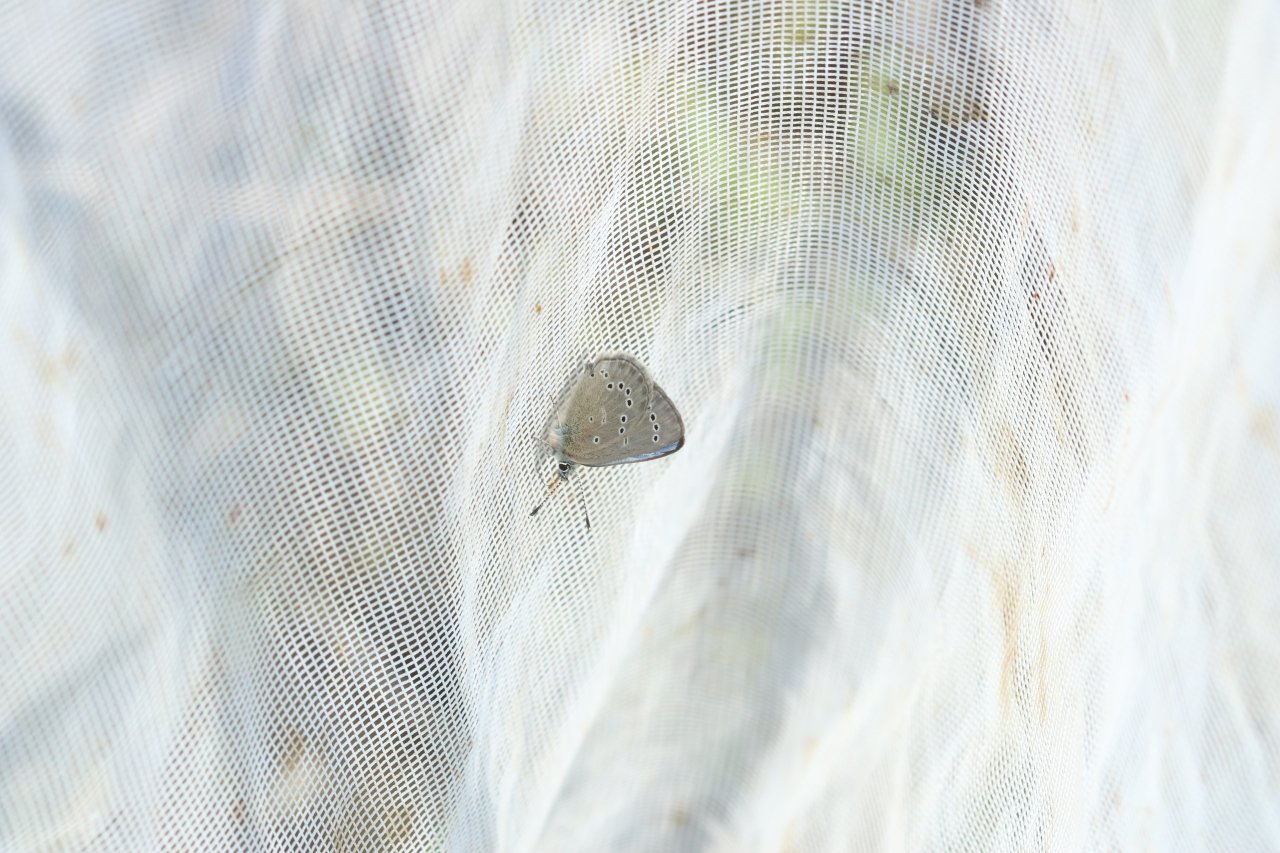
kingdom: Animalia
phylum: Arthropoda
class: Insecta
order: Lepidoptera
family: Lycaenidae
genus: Glaucopsyche
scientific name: Glaucopsyche lygdamus
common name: Silvery Blue
